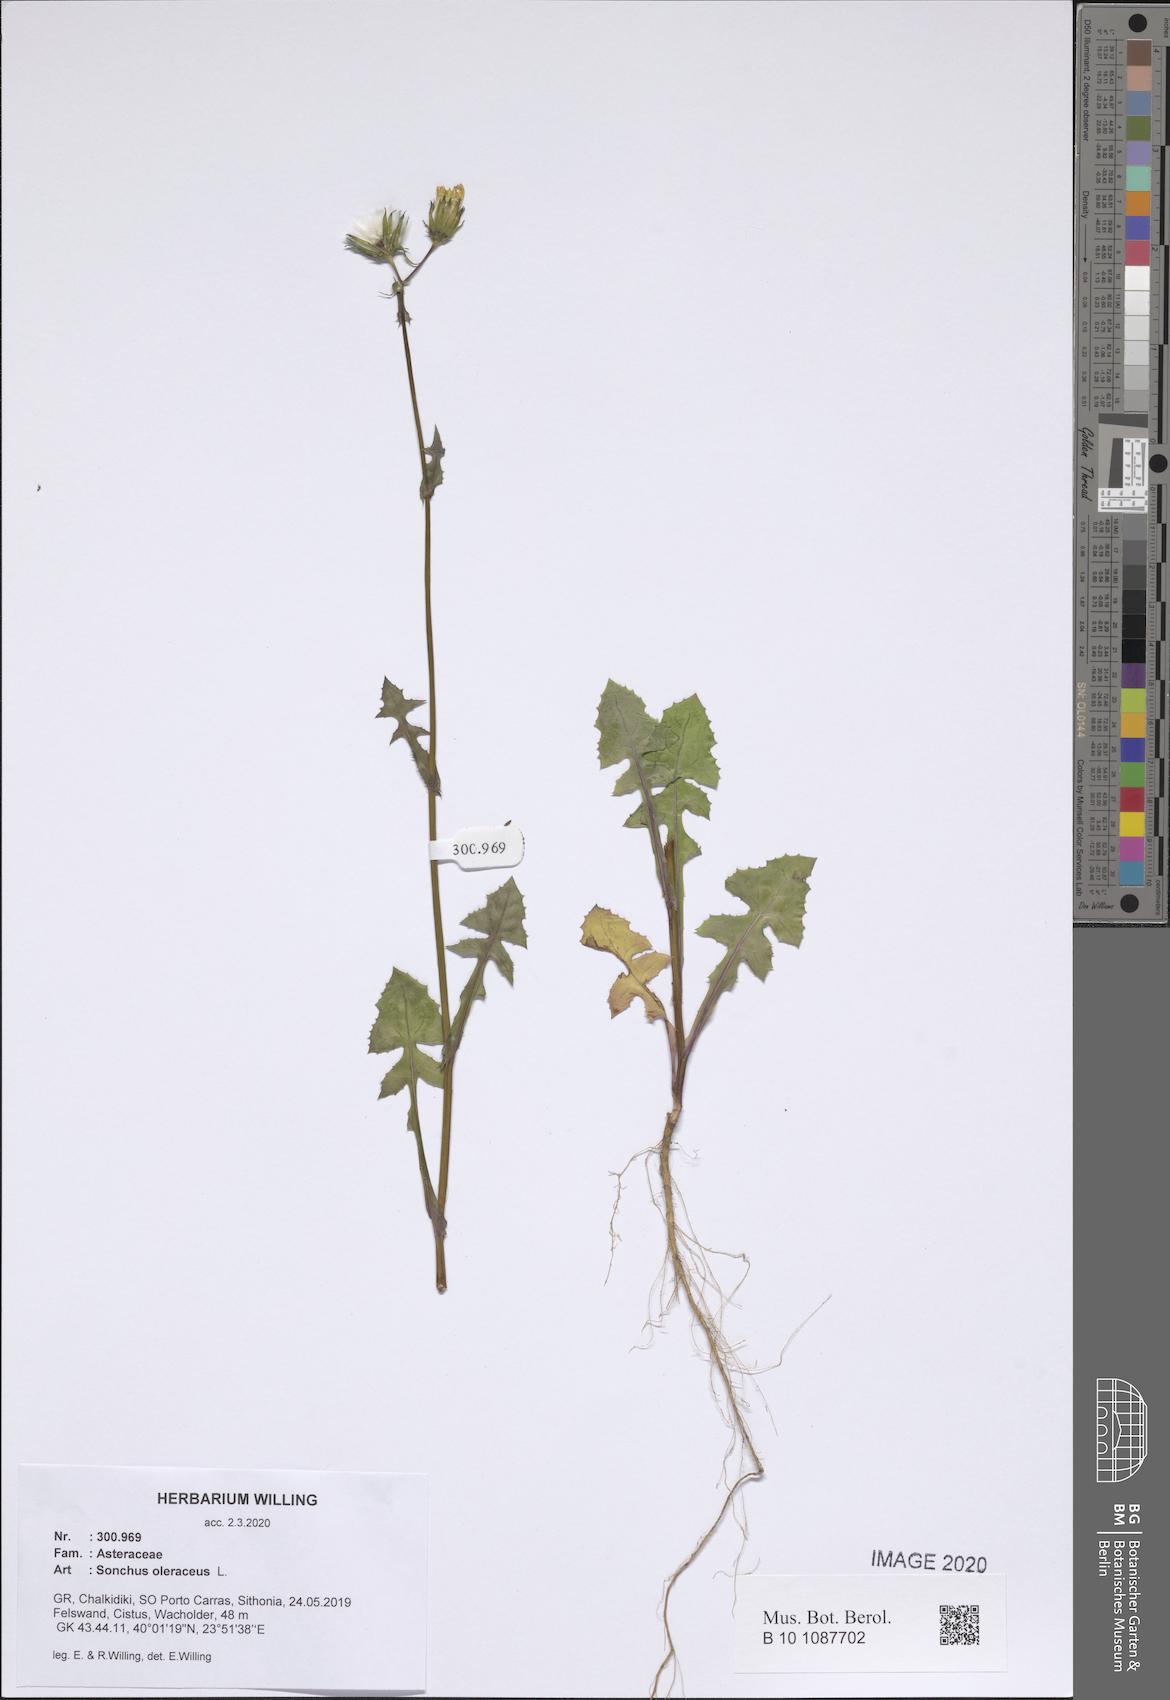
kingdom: Plantae
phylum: Tracheophyta
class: Magnoliopsida
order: Asterales
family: Asteraceae
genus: Sonchus
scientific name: Sonchus oleraceus
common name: Common sowthistle
